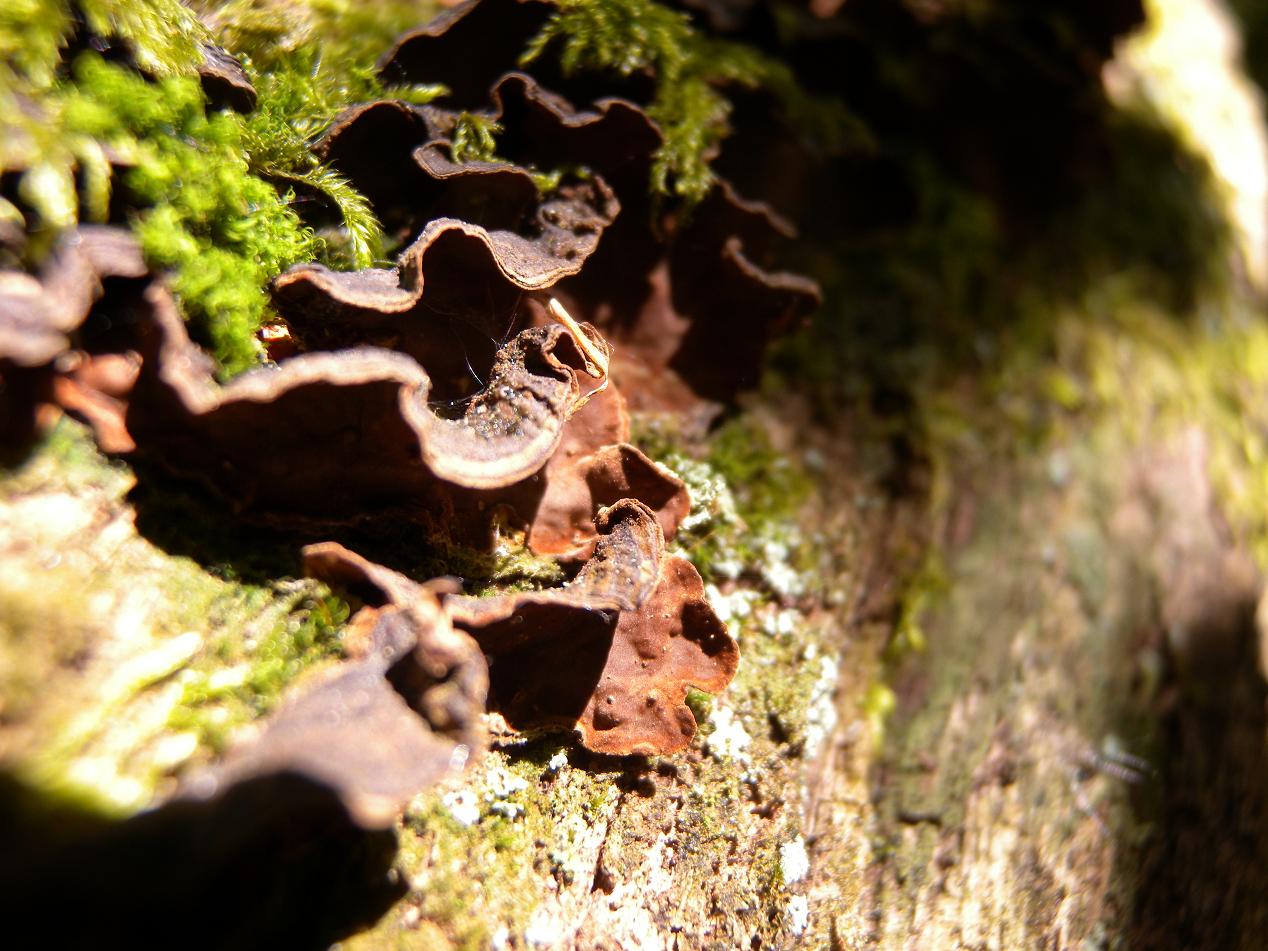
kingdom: Fungi
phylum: Basidiomycota
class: Agaricomycetes
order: Hymenochaetales
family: Hymenochaetaceae
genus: Hymenochaete
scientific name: Hymenochaete rubiginosa
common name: stiv ruslædersvamp
